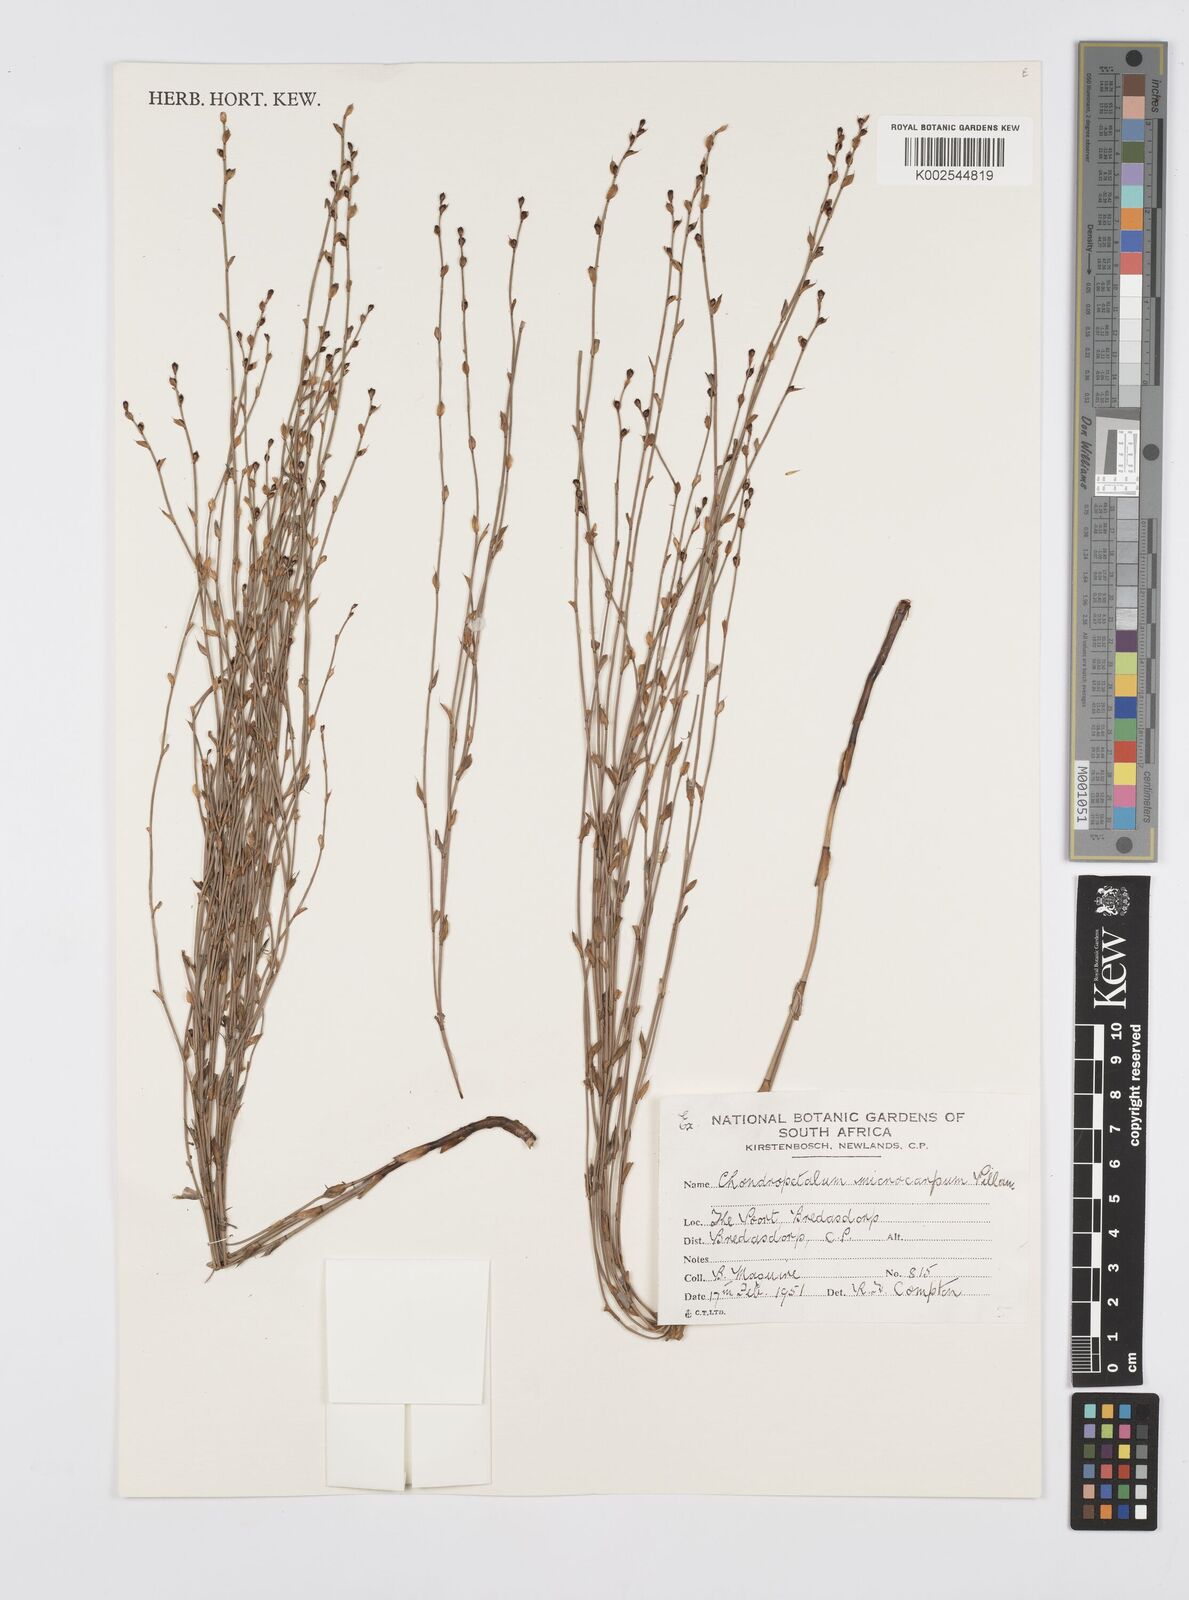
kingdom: Plantae
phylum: Tracheophyta
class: Liliopsida
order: Poales
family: Restionaceae
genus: Elegia
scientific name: Elegia microcarpa
